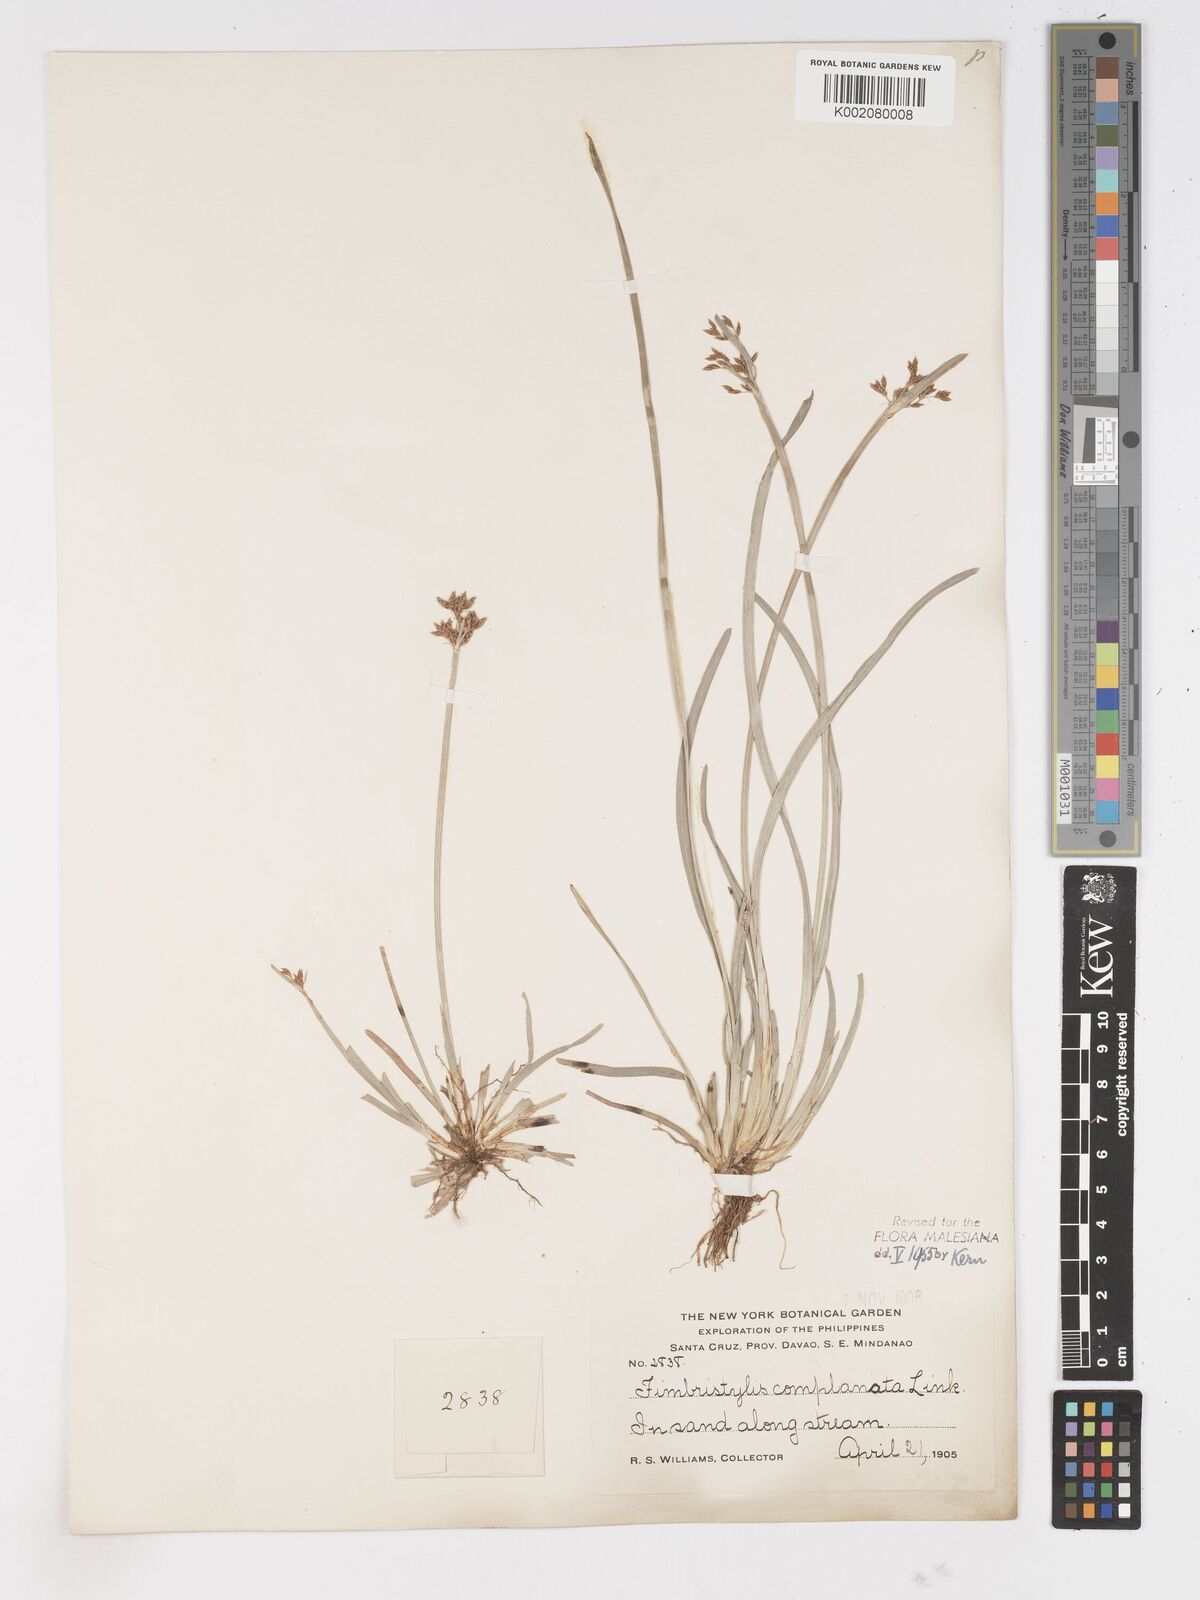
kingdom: Plantae
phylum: Tracheophyta
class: Liliopsida
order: Poales
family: Cyperaceae
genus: Fimbristylis
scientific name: Fimbristylis complanata
